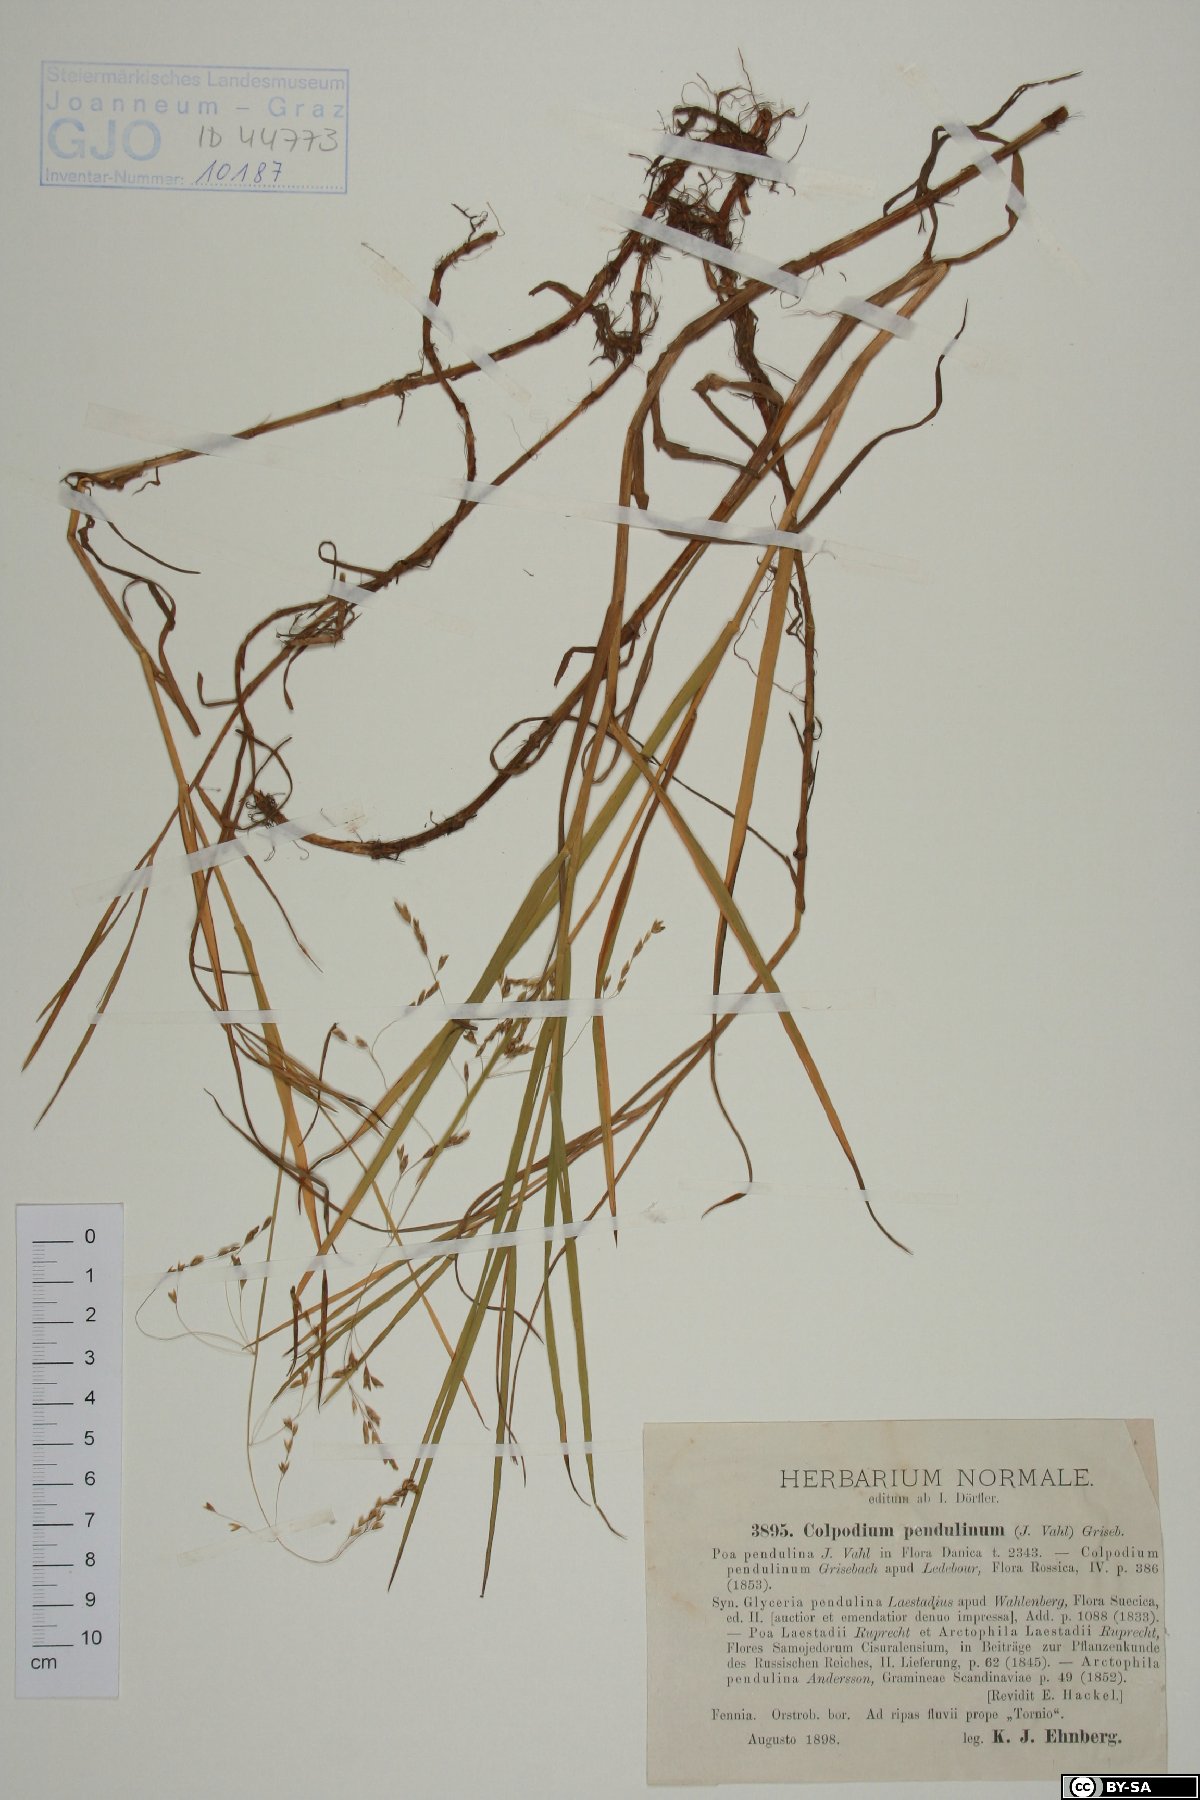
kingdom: Plantae
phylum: Tracheophyta
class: Liliopsida
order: Poales
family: Poaceae
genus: Dupontia
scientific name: Dupontia fulva
